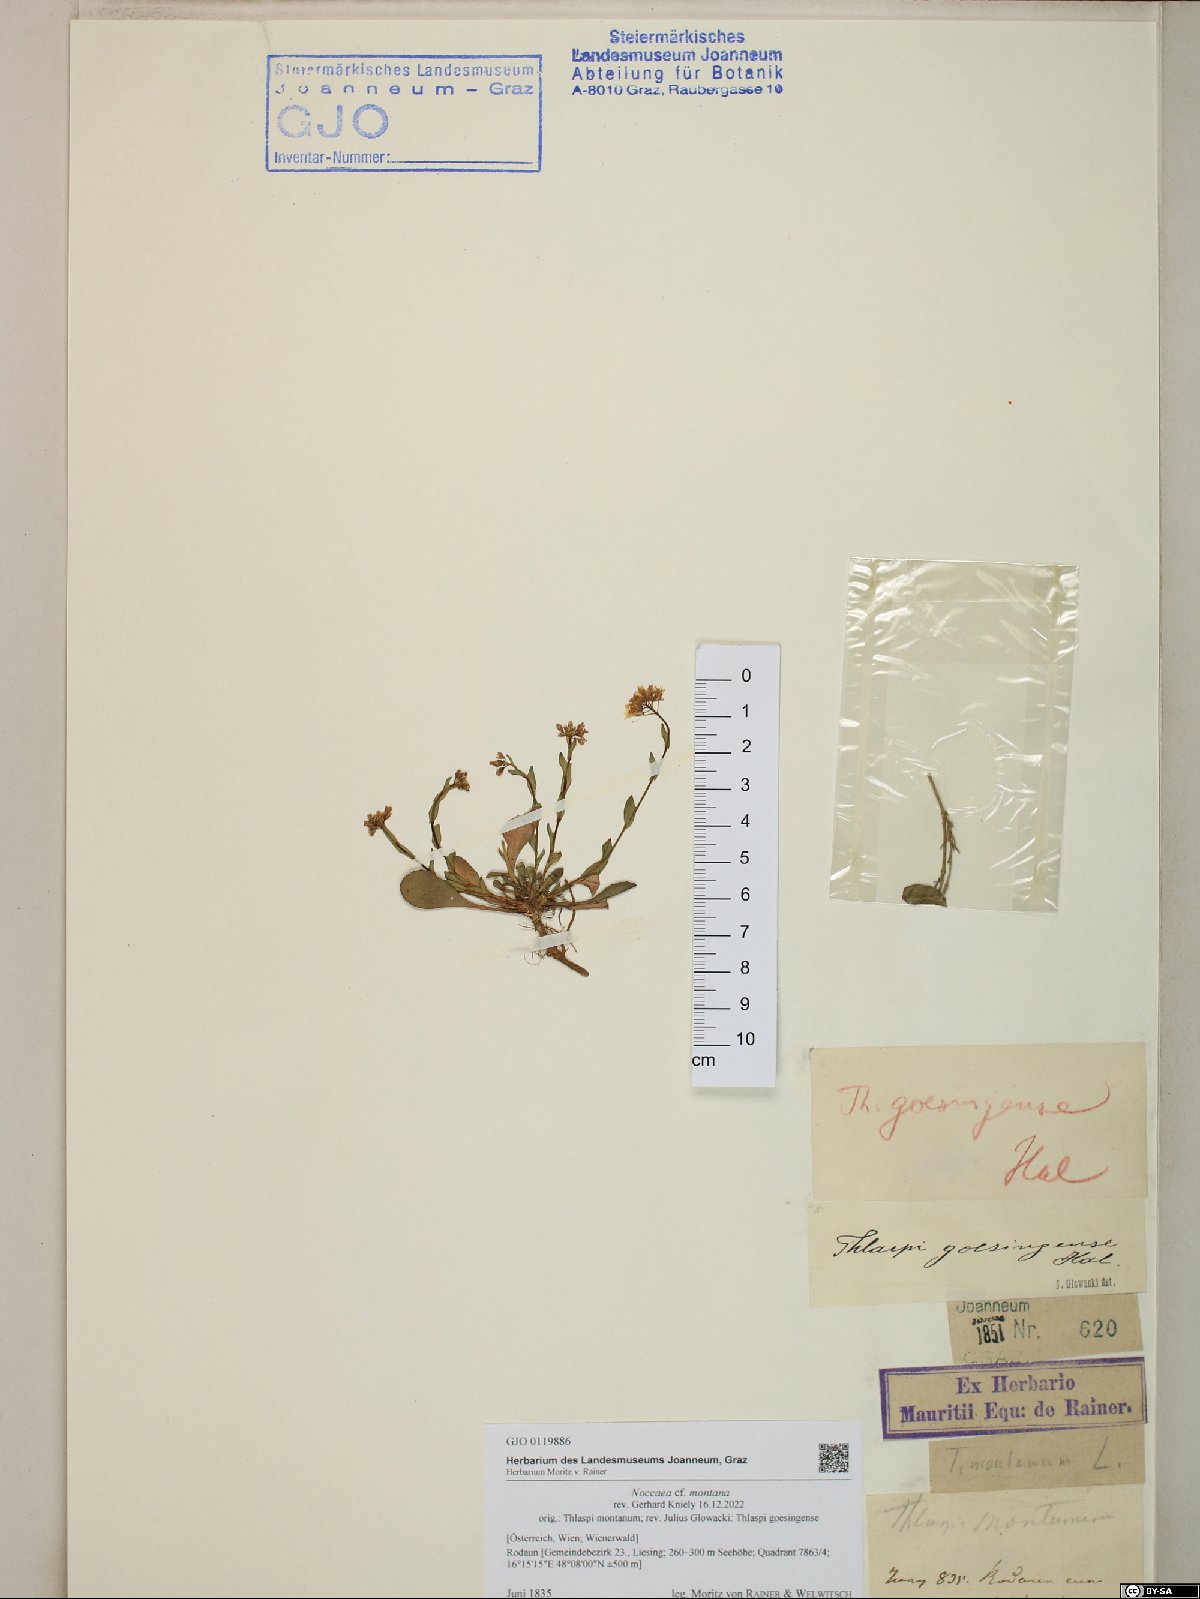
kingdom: Plantae
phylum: Tracheophyta
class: Magnoliopsida
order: Brassicales
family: Brassicaceae
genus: Noccaea
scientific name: Noccaea montana
